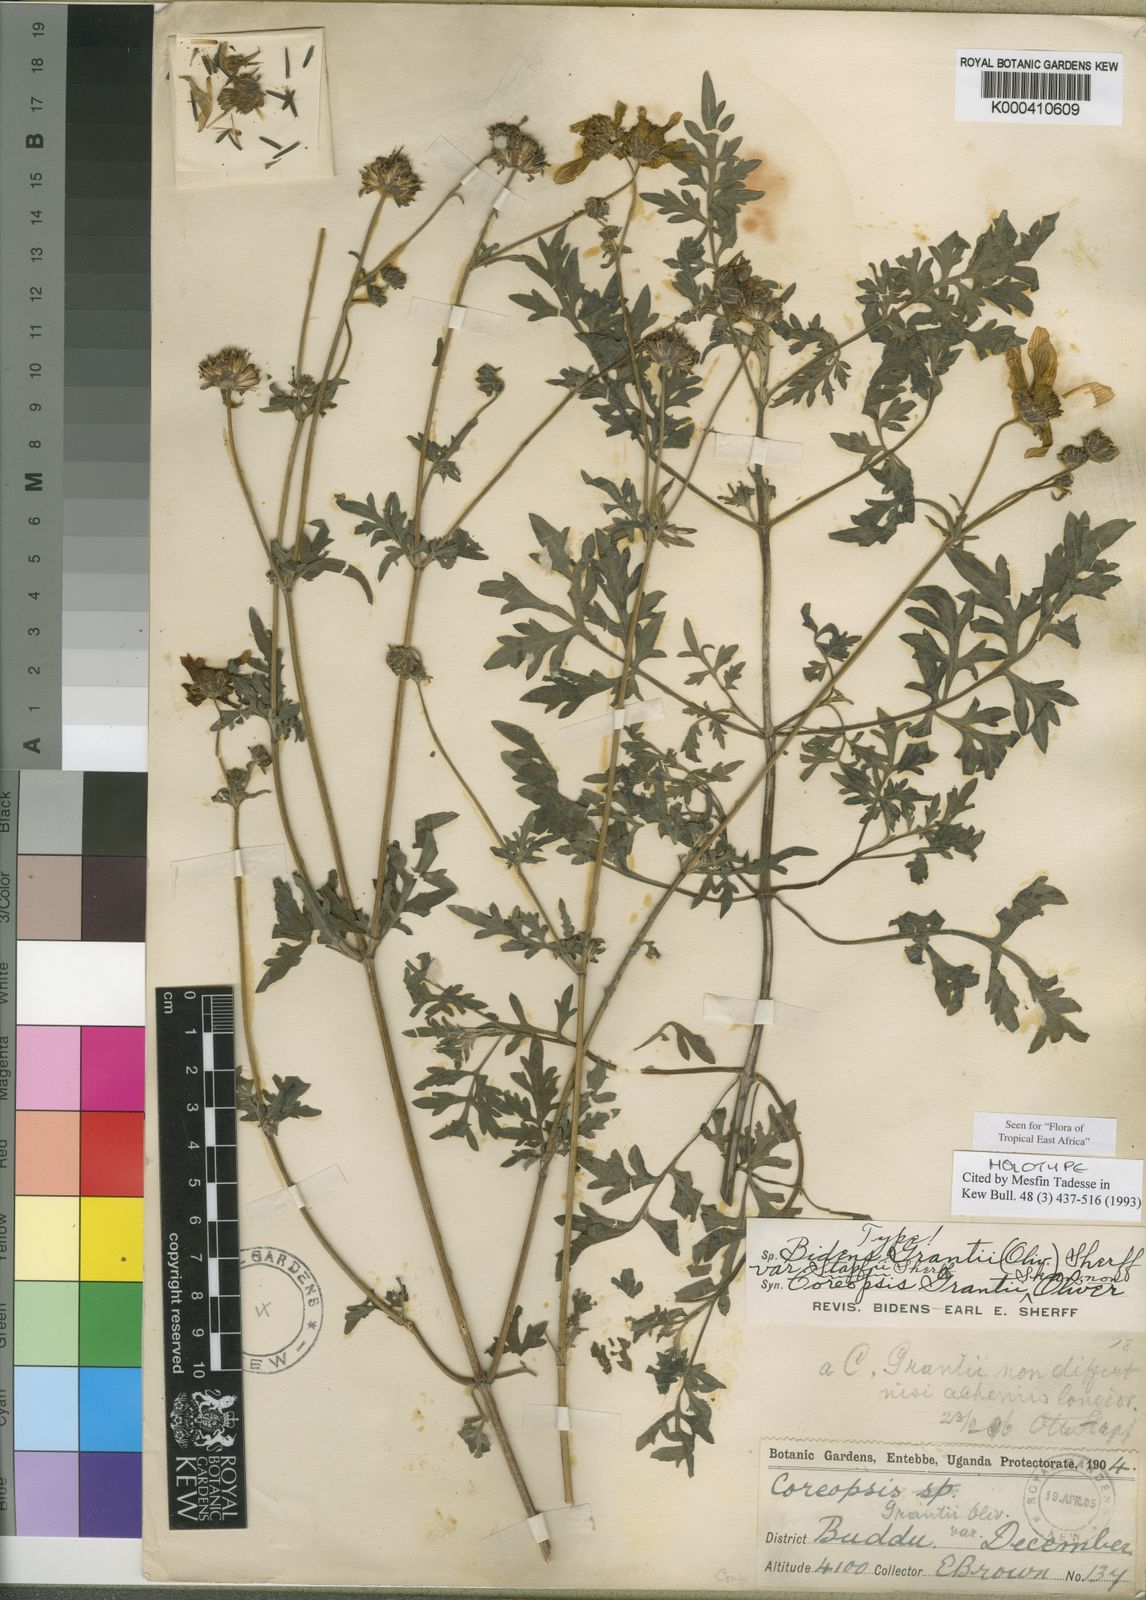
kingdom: Plantae
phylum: Tracheophyta
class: Magnoliopsida
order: Asterales
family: Asteraceae
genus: Bidens
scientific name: Bidens grantii
